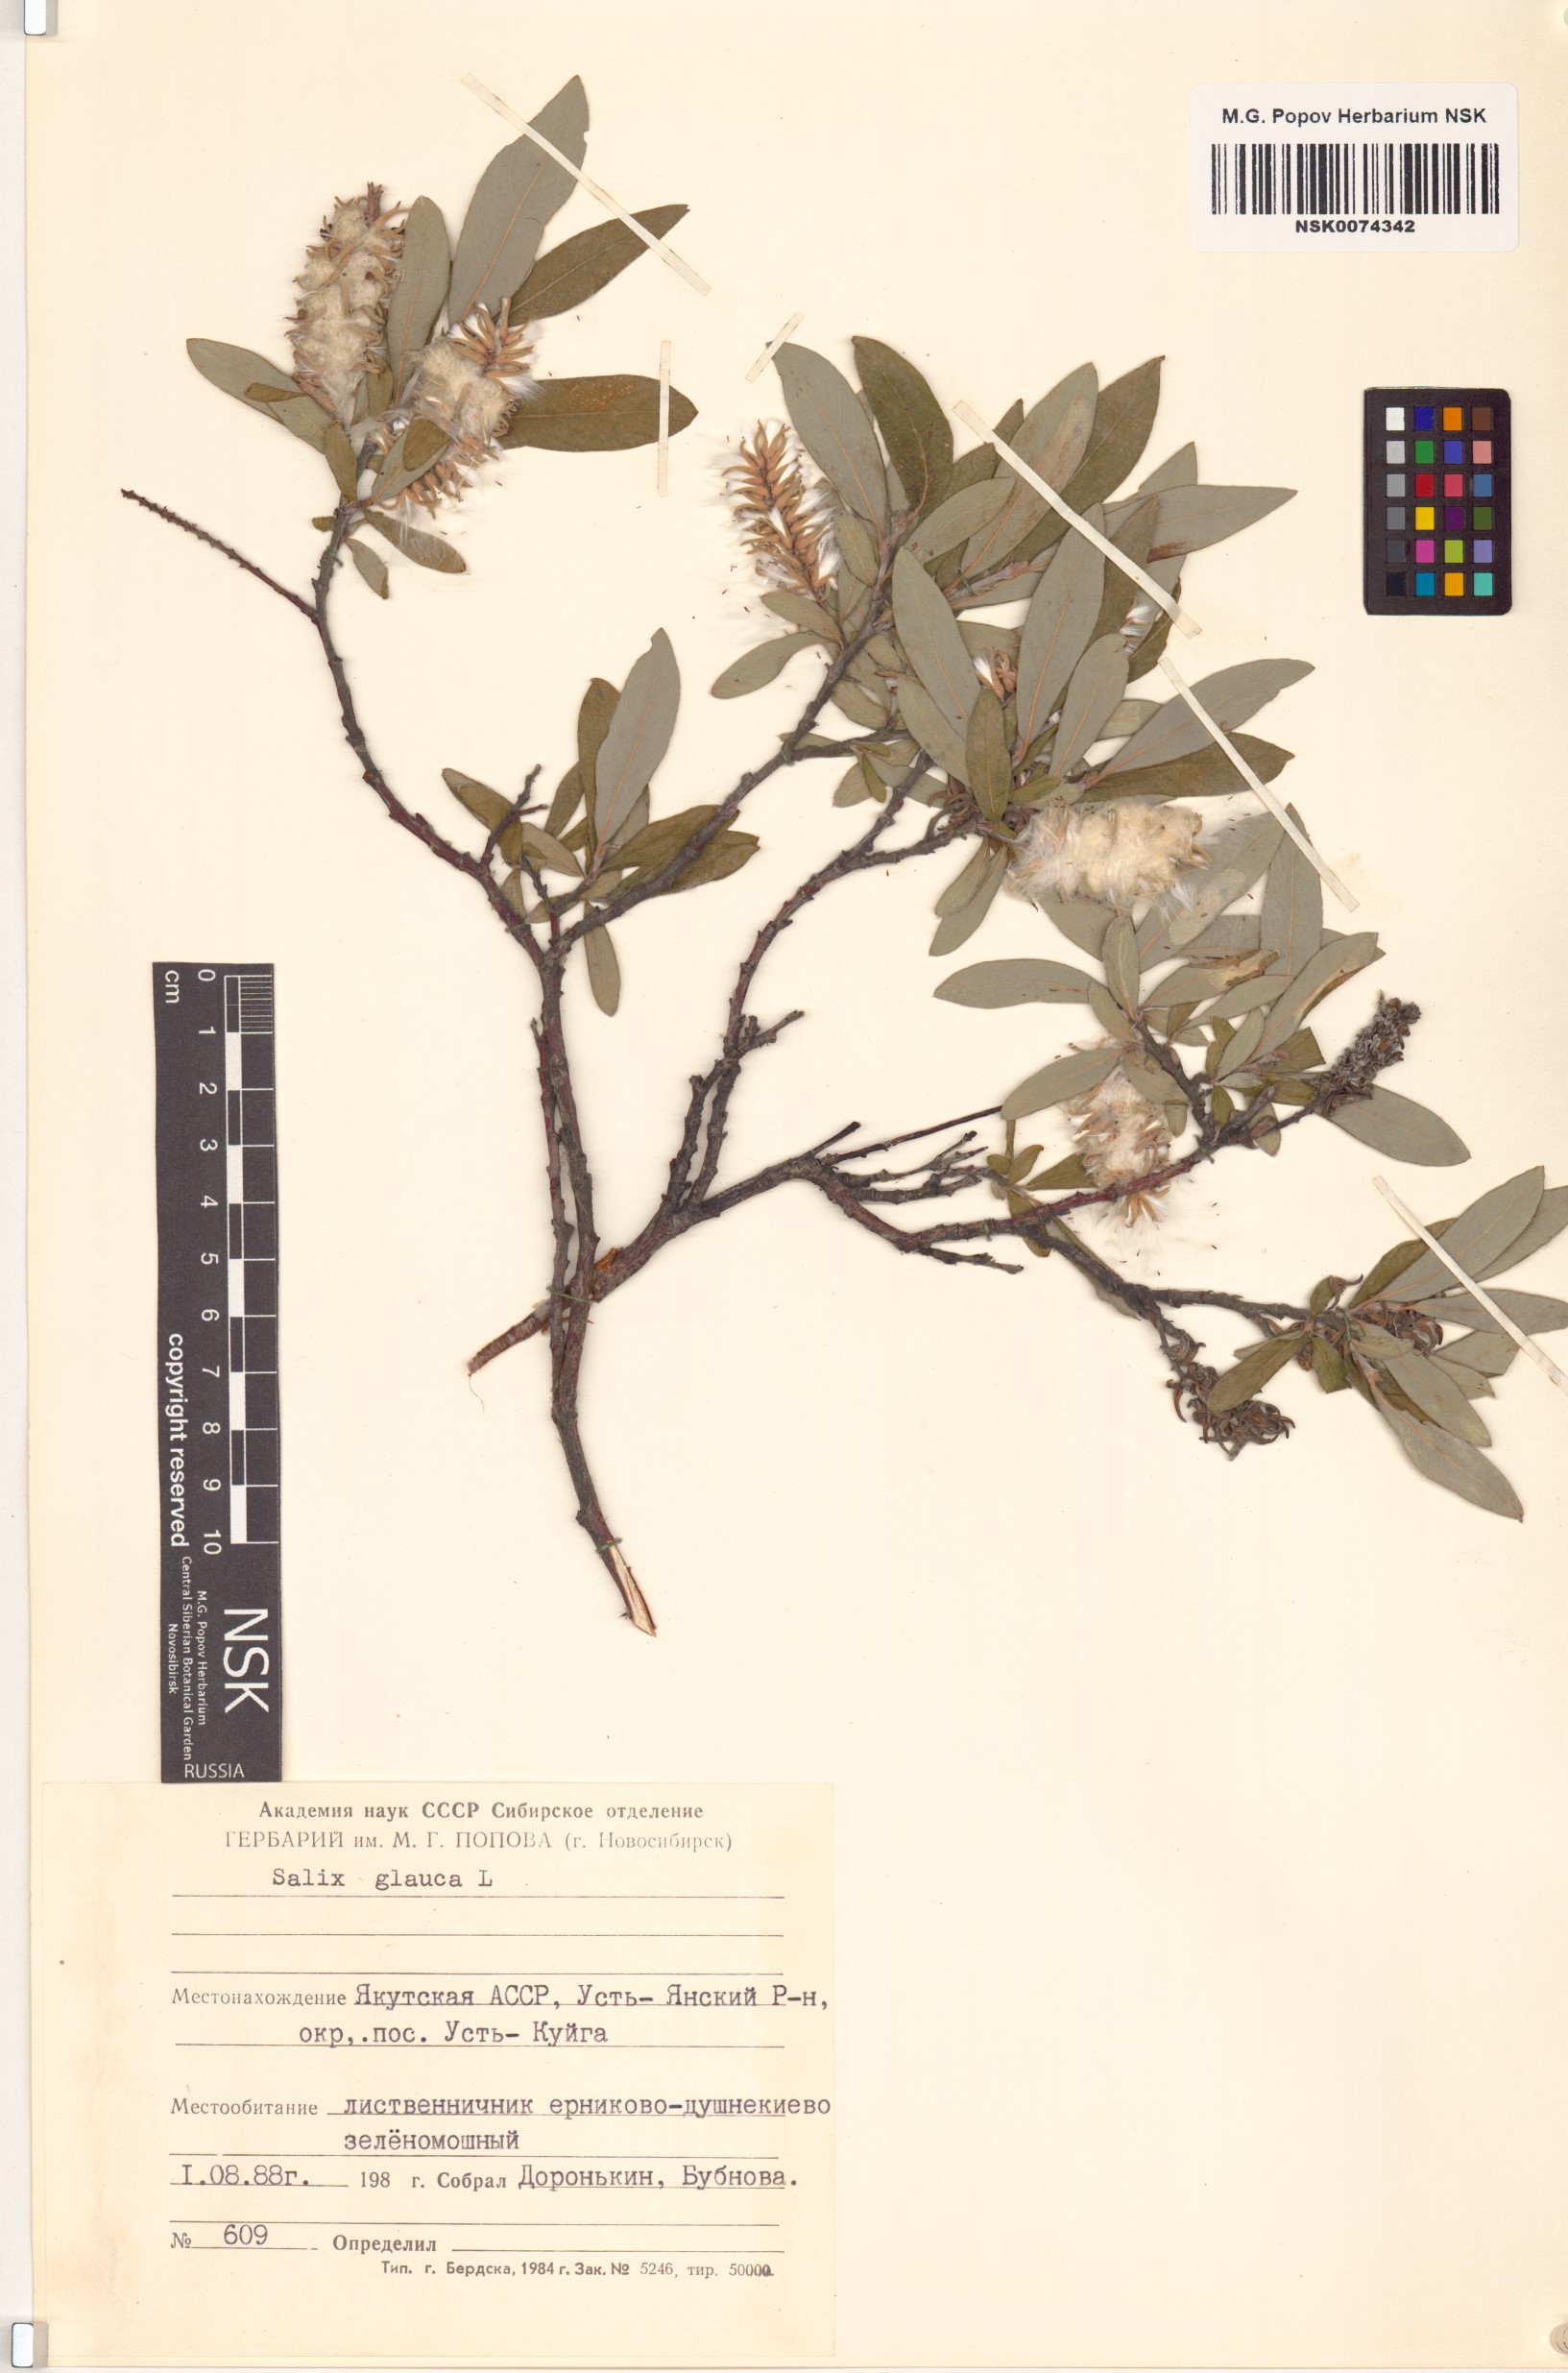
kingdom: Plantae
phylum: Tracheophyta
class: Magnoliopsida
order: Malpighiales
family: Salicaceae
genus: Salix
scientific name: Salix glauca
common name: Glaucous willow
